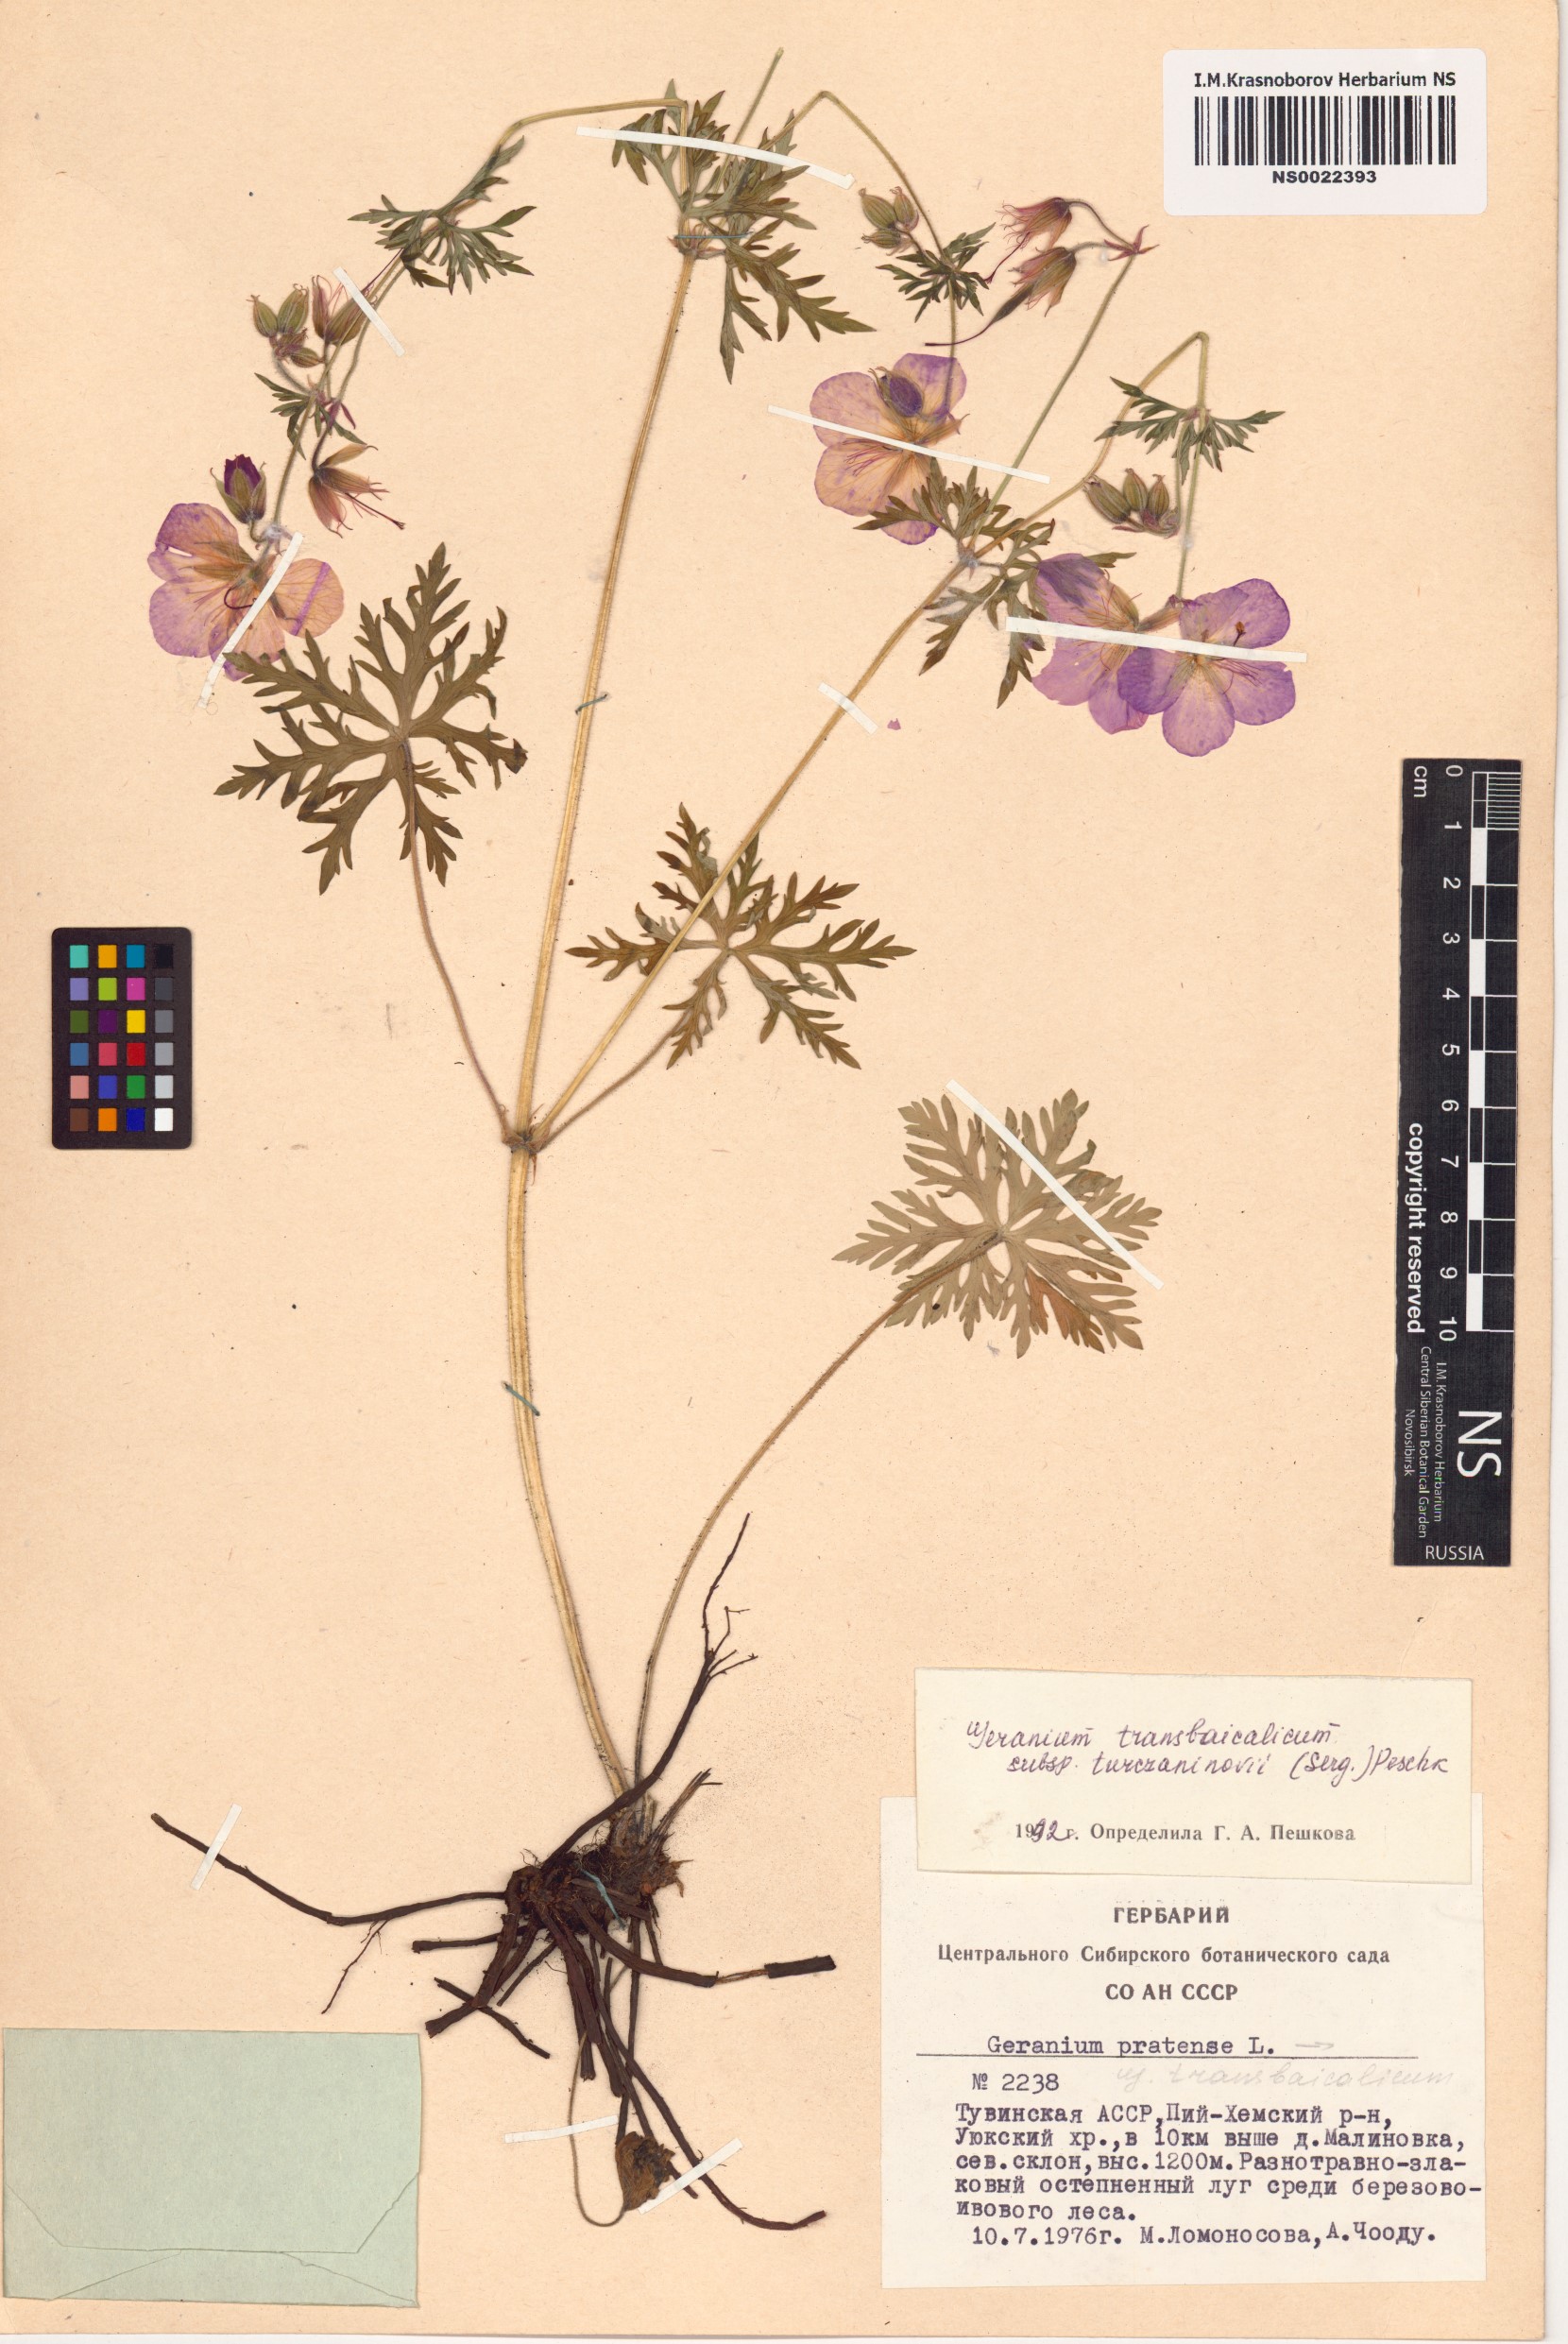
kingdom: Plantae
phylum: Tracheophyta
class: Magnoliopsida
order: Geraniales
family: Geraniaceae
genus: Geranium
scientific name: Geranium pratense
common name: Meadow crane's-bill
